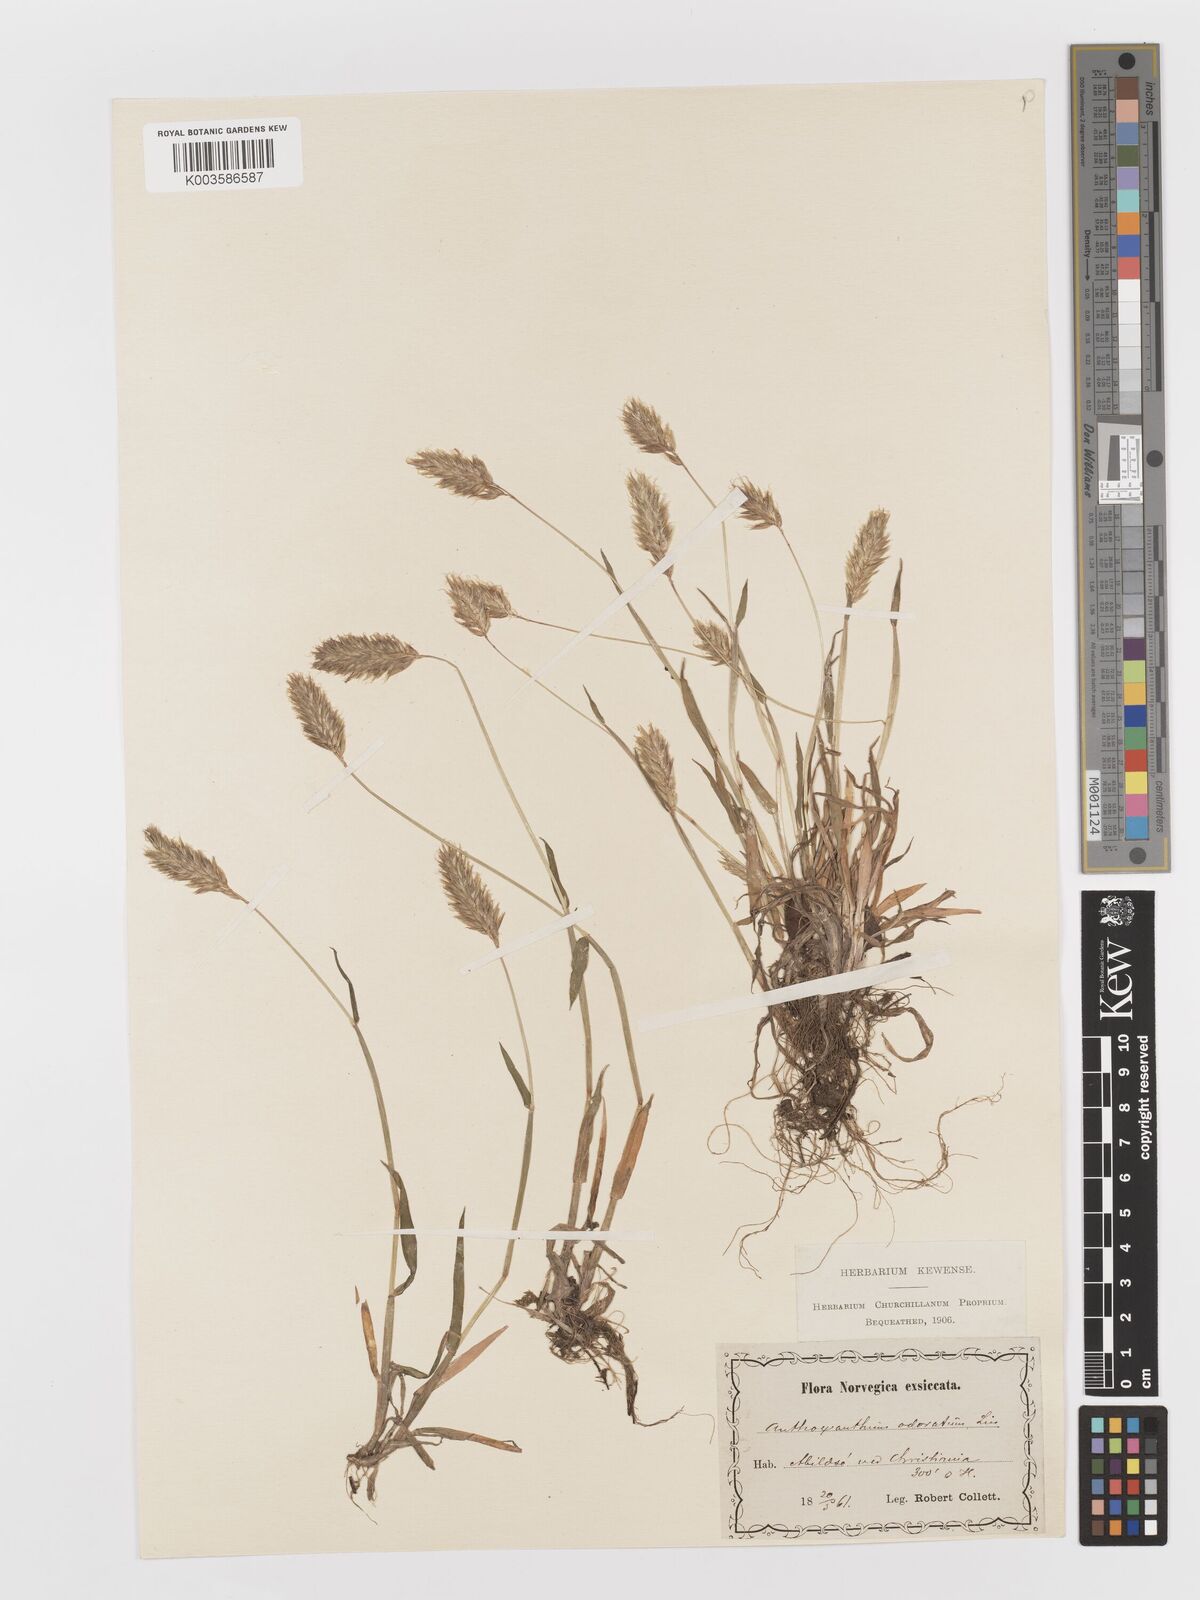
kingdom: Plantae
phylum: Tracheophyta
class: Liliopsida
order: Poales
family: Poaceae
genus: Anthoxanthum
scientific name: Anthoxanthum odoratum
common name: Sweet vernalgrass
